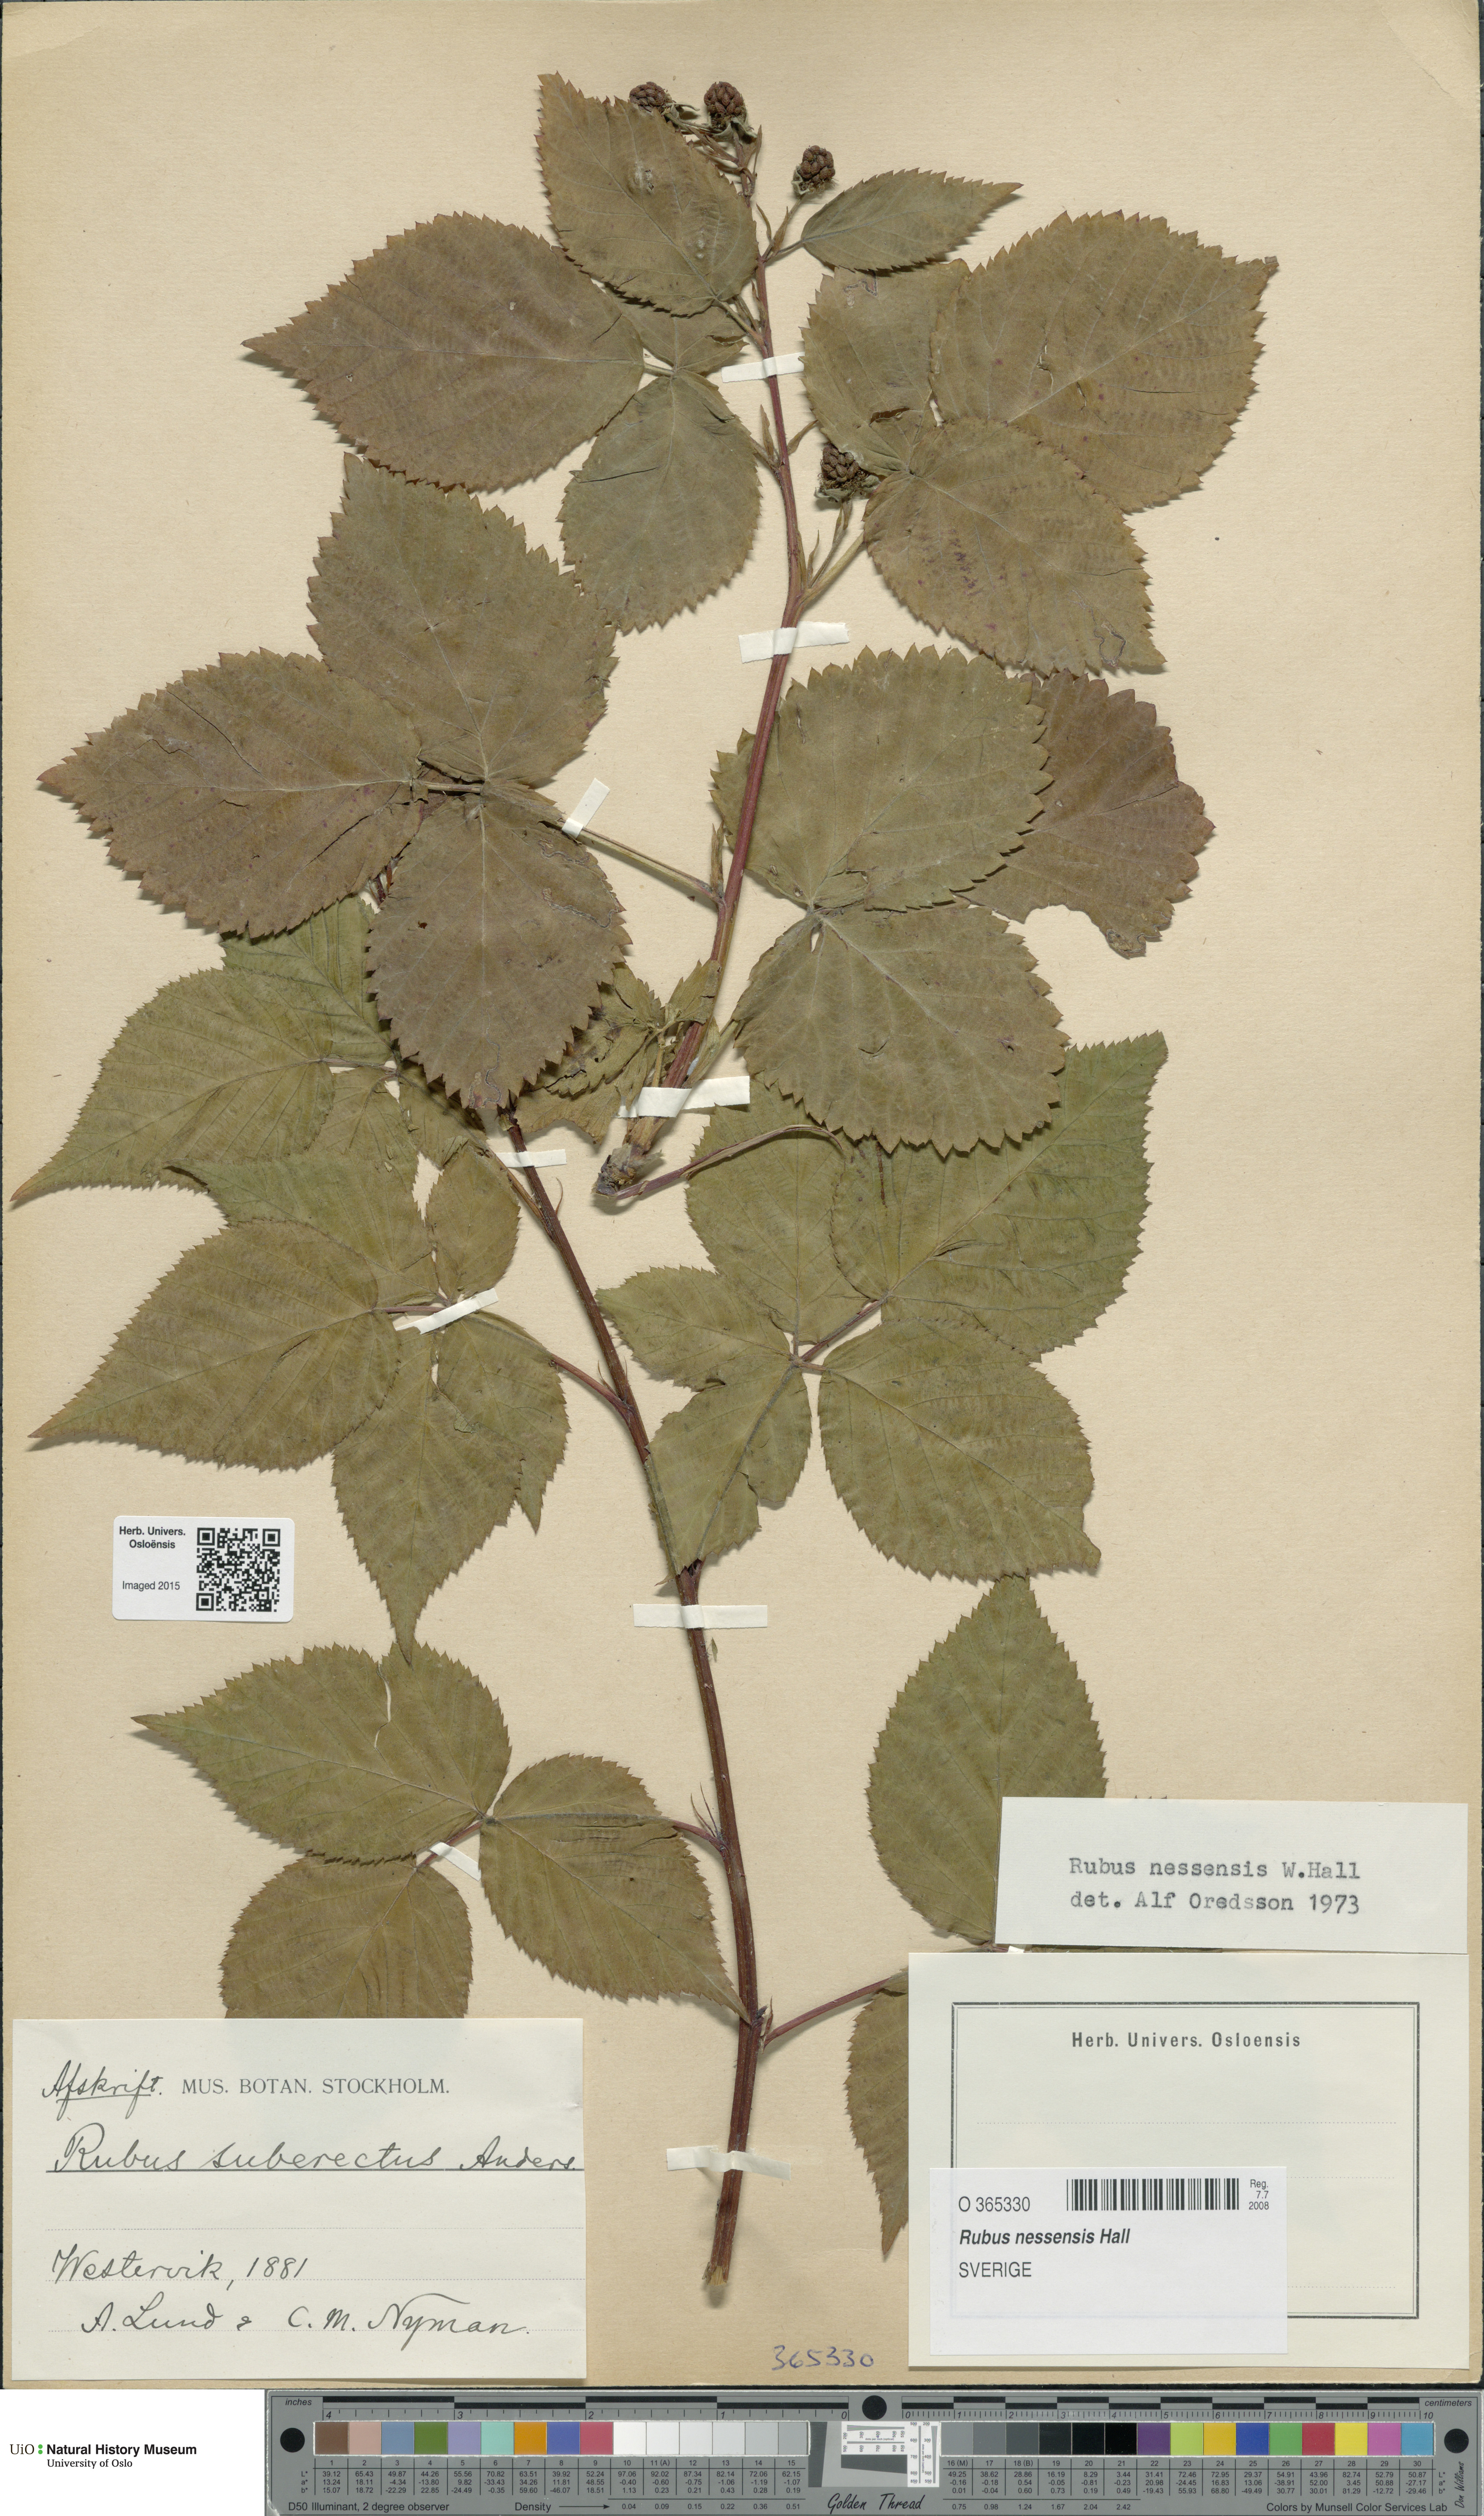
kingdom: Plantae
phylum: Tracheophyta
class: Magnoliopsida
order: Rosales
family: Rosaceae
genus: Rubus
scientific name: Rubus polonicus
